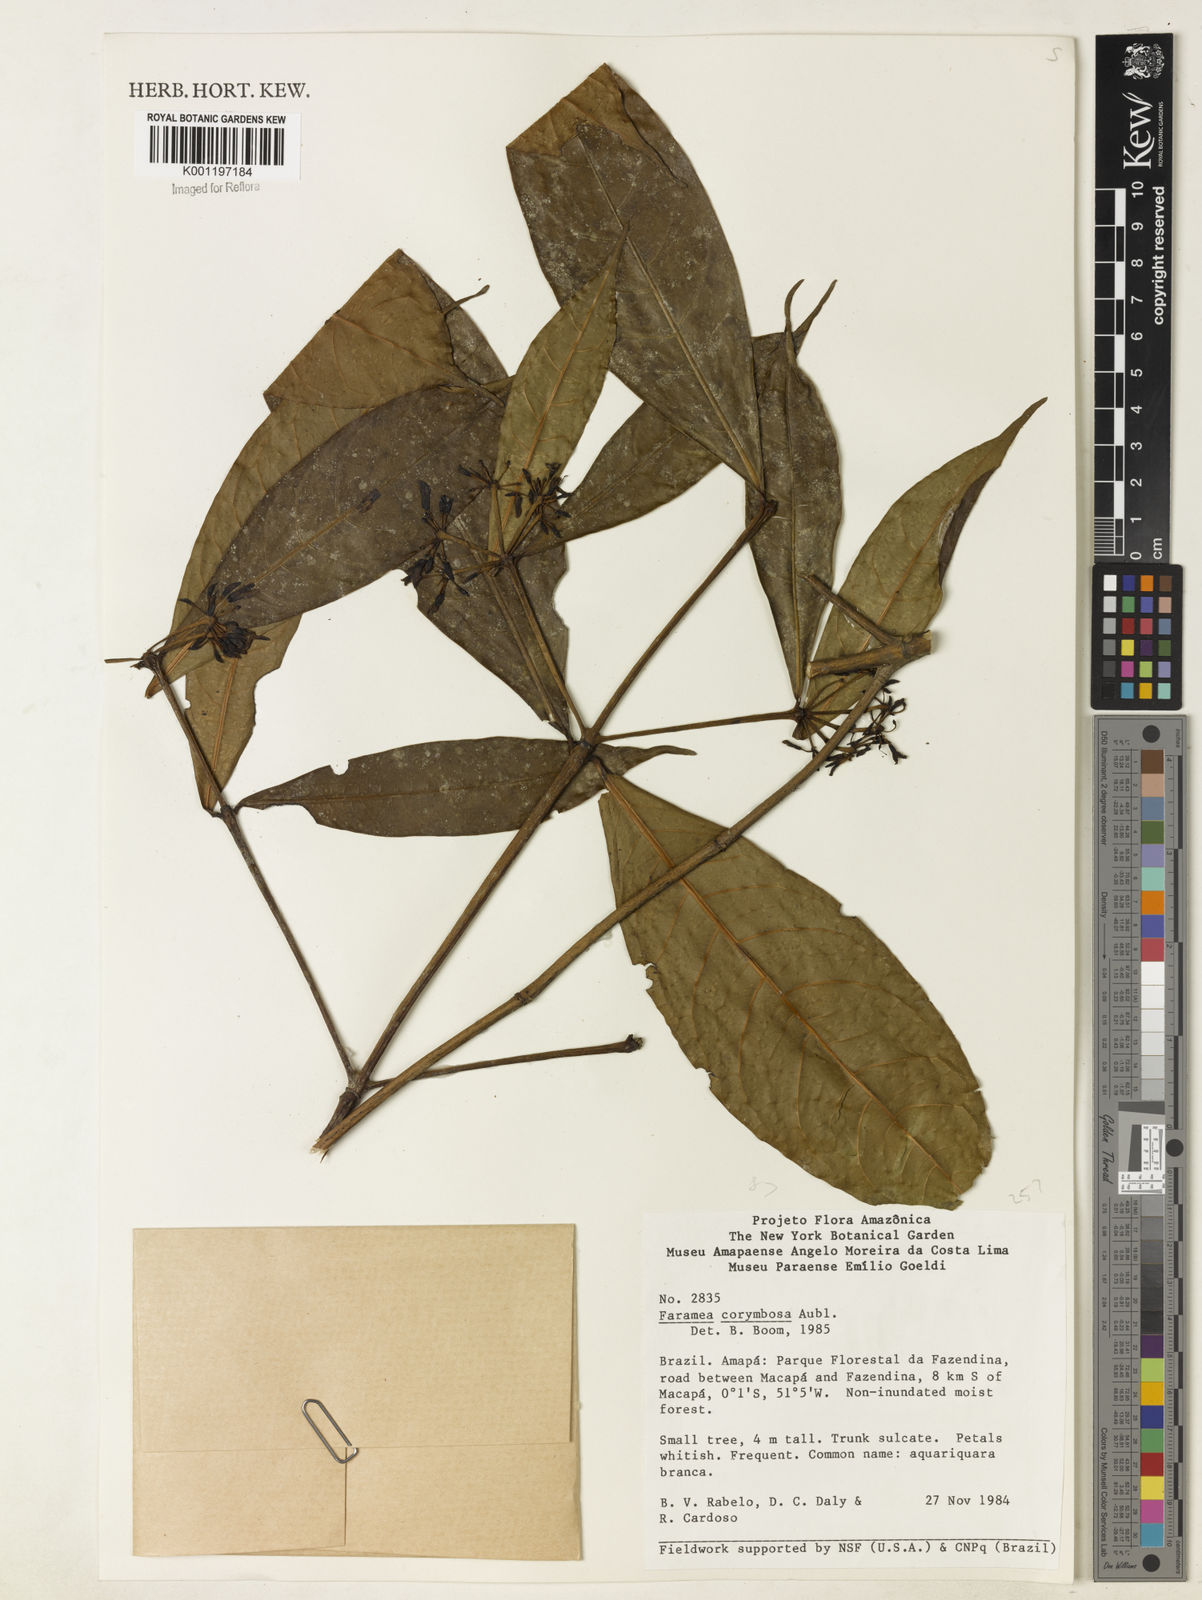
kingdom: Plantae
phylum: Tracheophyta
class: Magnoliopsida
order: Gentianales
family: Rubiaceae
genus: Faramea
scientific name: Faramea corymbosa
